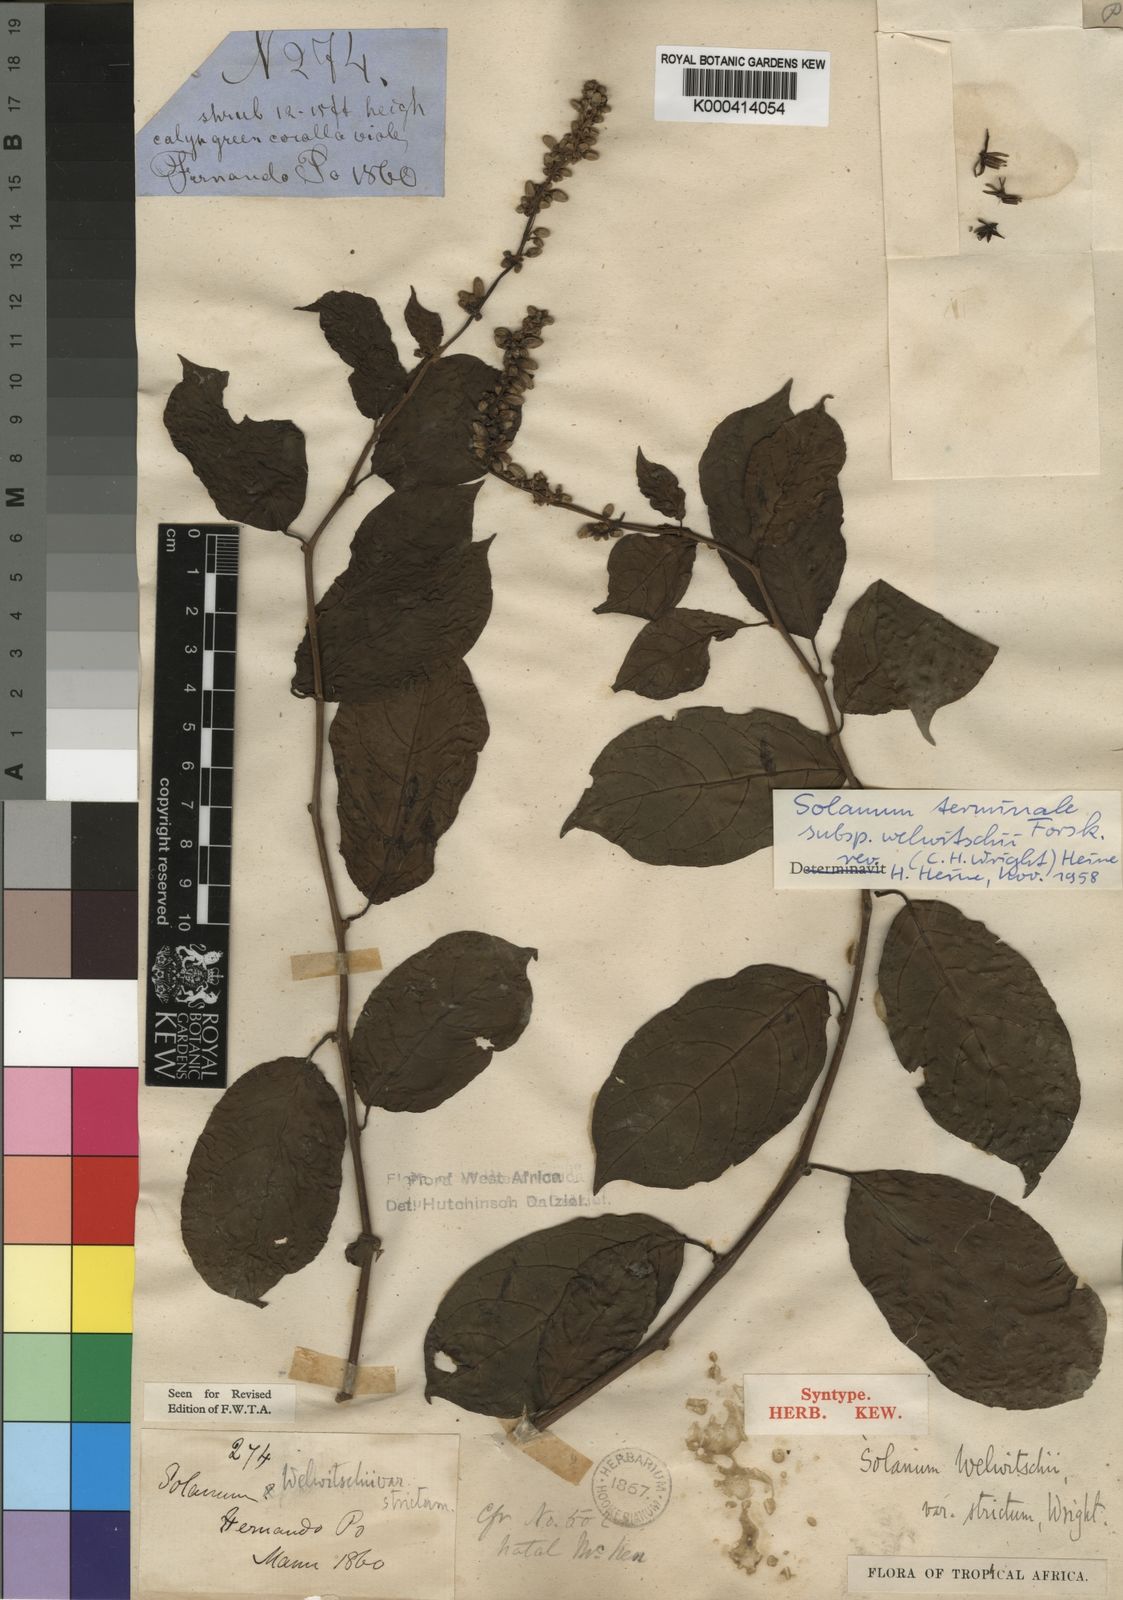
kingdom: Plantae
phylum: Tracheophyta
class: Magnoliopsida
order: Solanales
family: Solanaceae
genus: Solanum
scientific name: Solanum terminale
